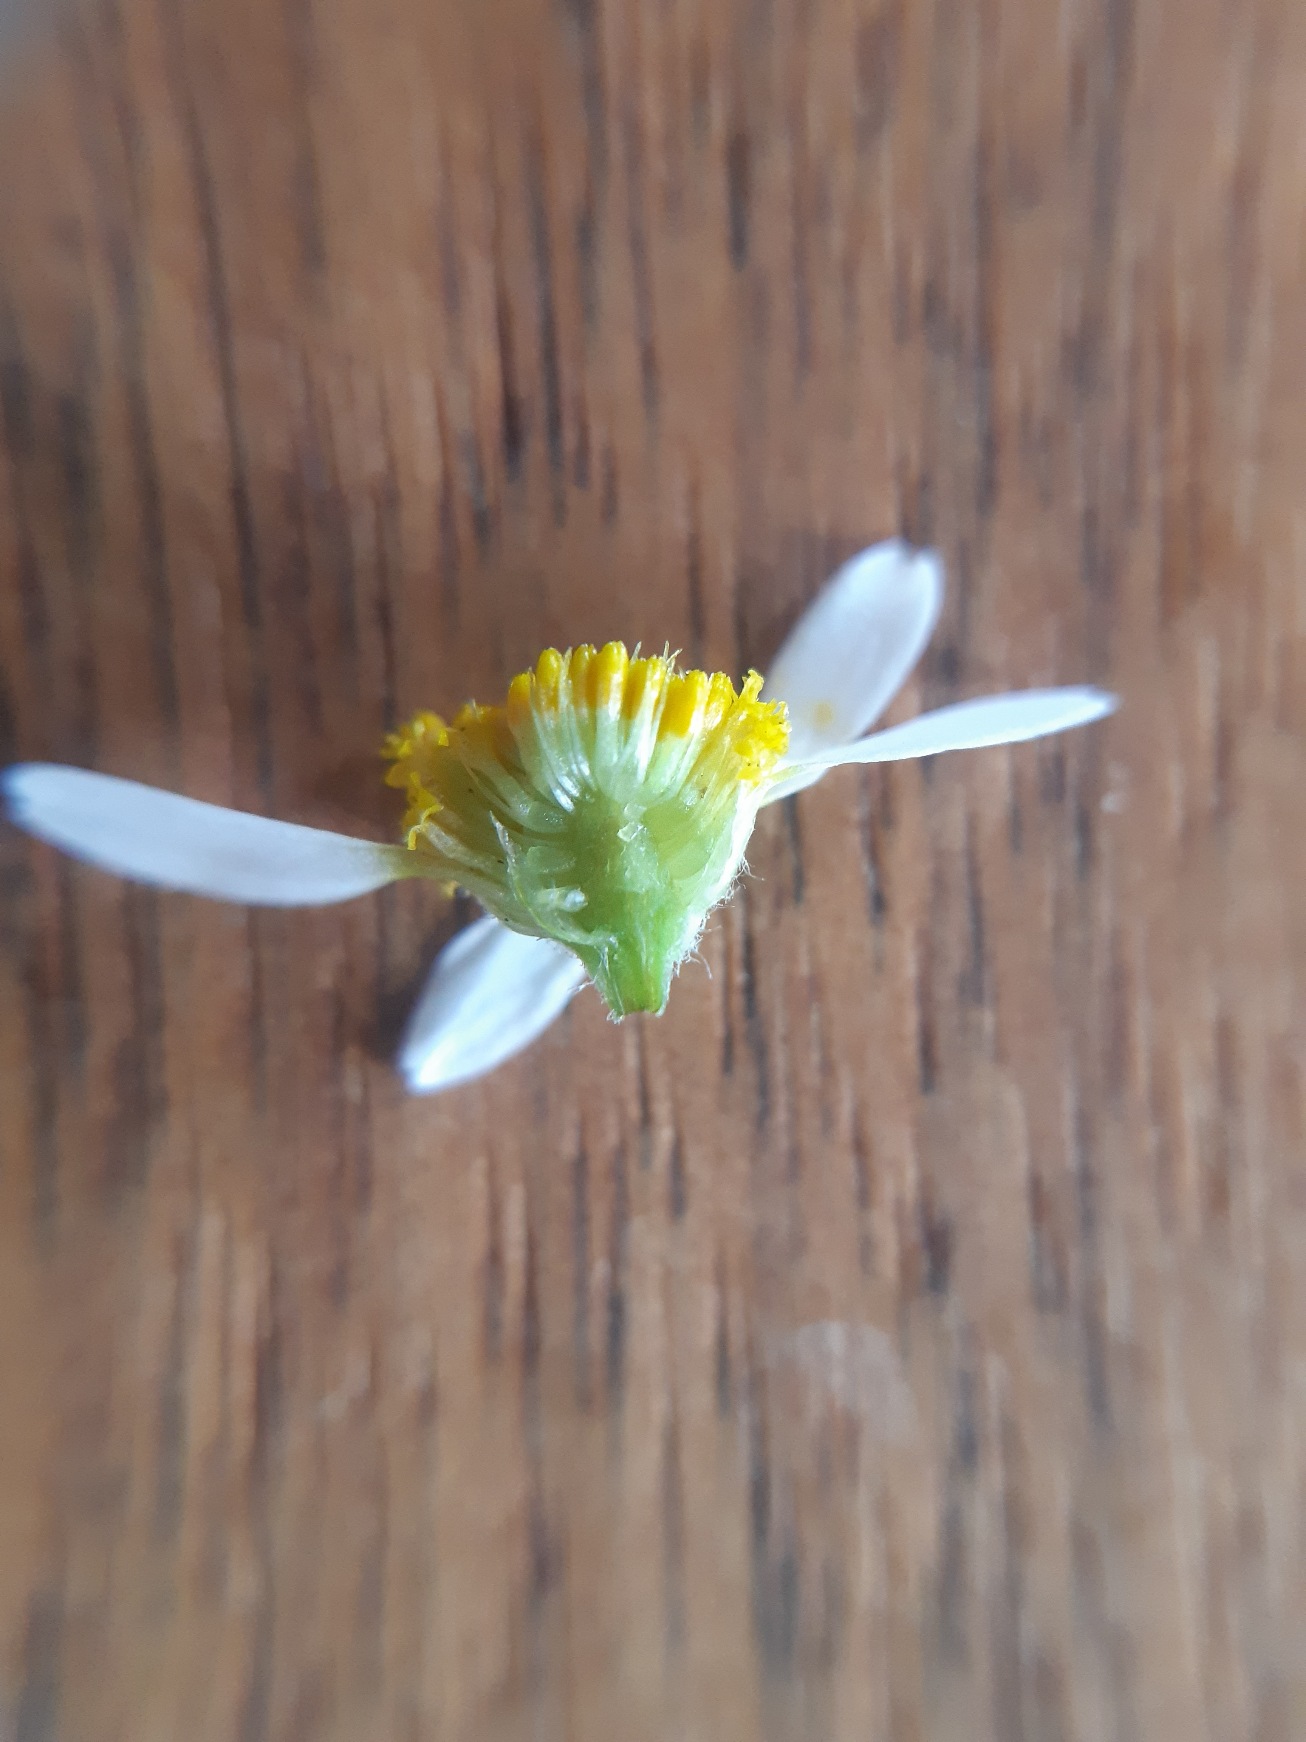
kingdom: Plantae
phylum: Tracheophyta
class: Magnoliopsida
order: Asterales
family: Asteraceae
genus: Anthemis
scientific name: Anthemis cotula
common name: Stinkende gåseurt
